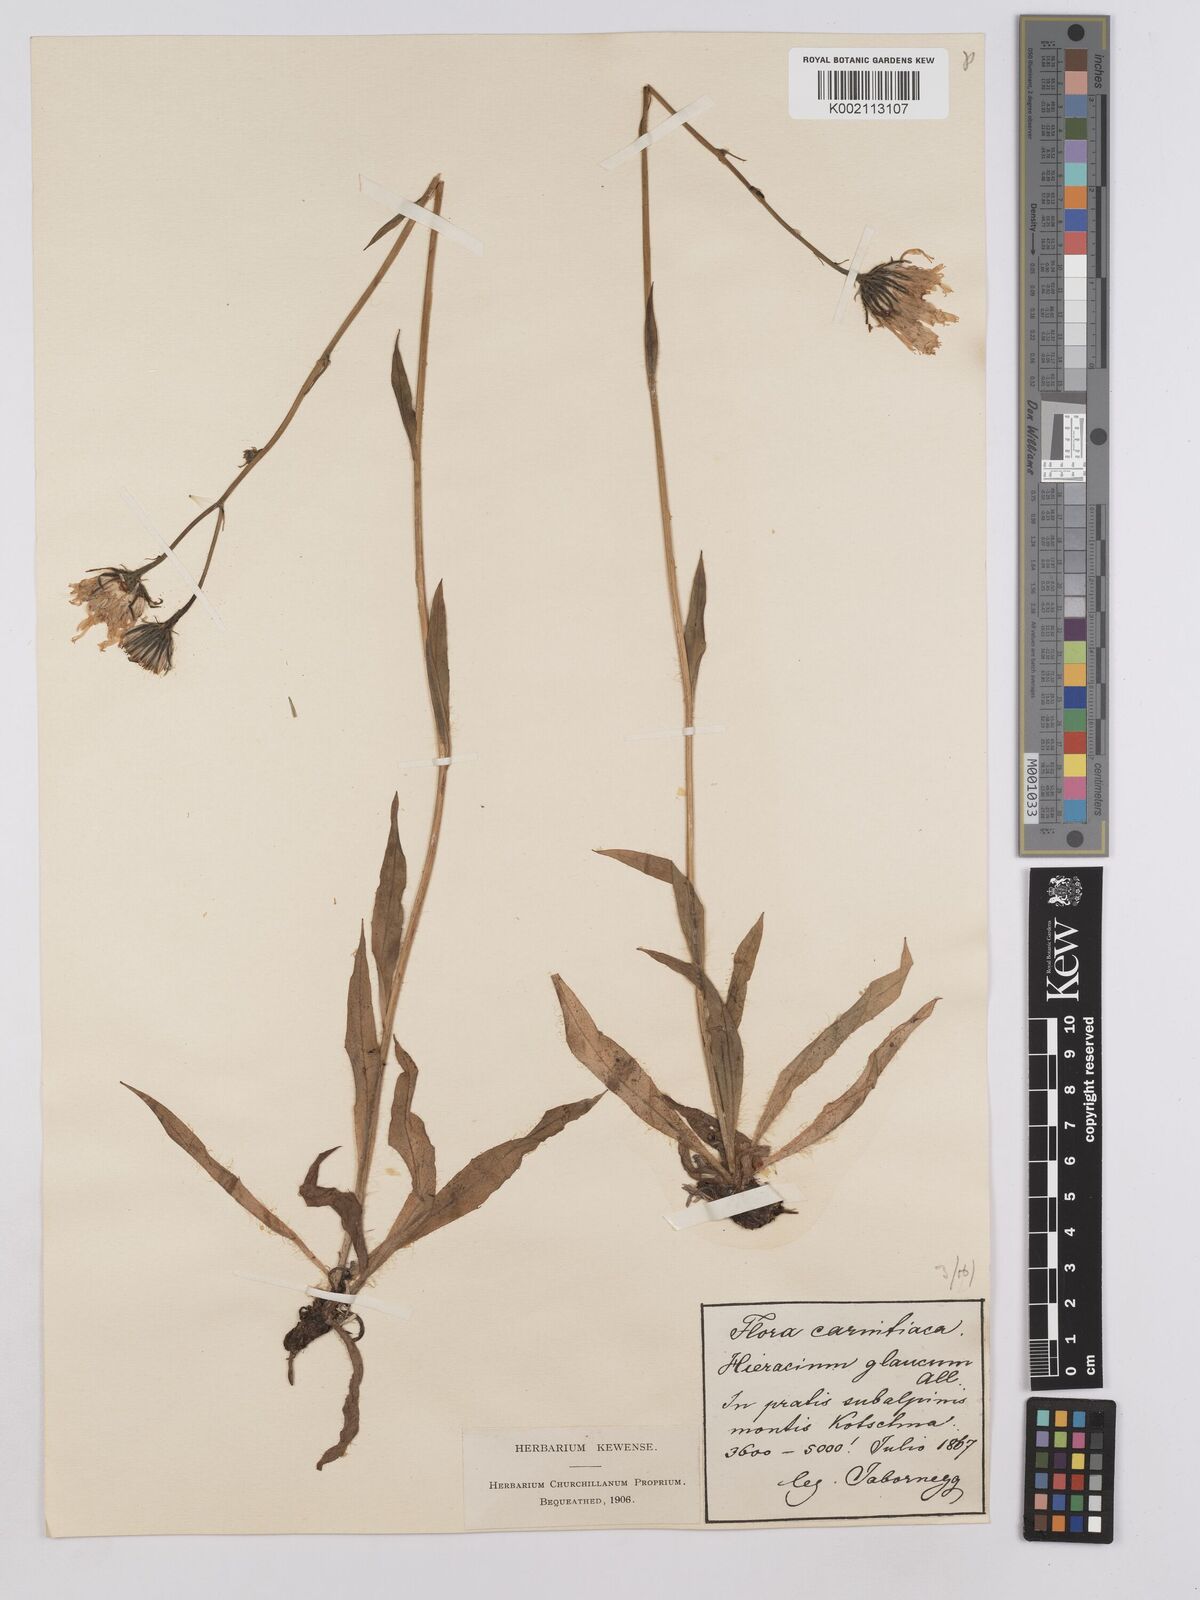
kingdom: Plantae
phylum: Tracheophyta
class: Magnoliopsida
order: Asterales
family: Asteraceae
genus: Hieracium
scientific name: Hieracium glaucum
